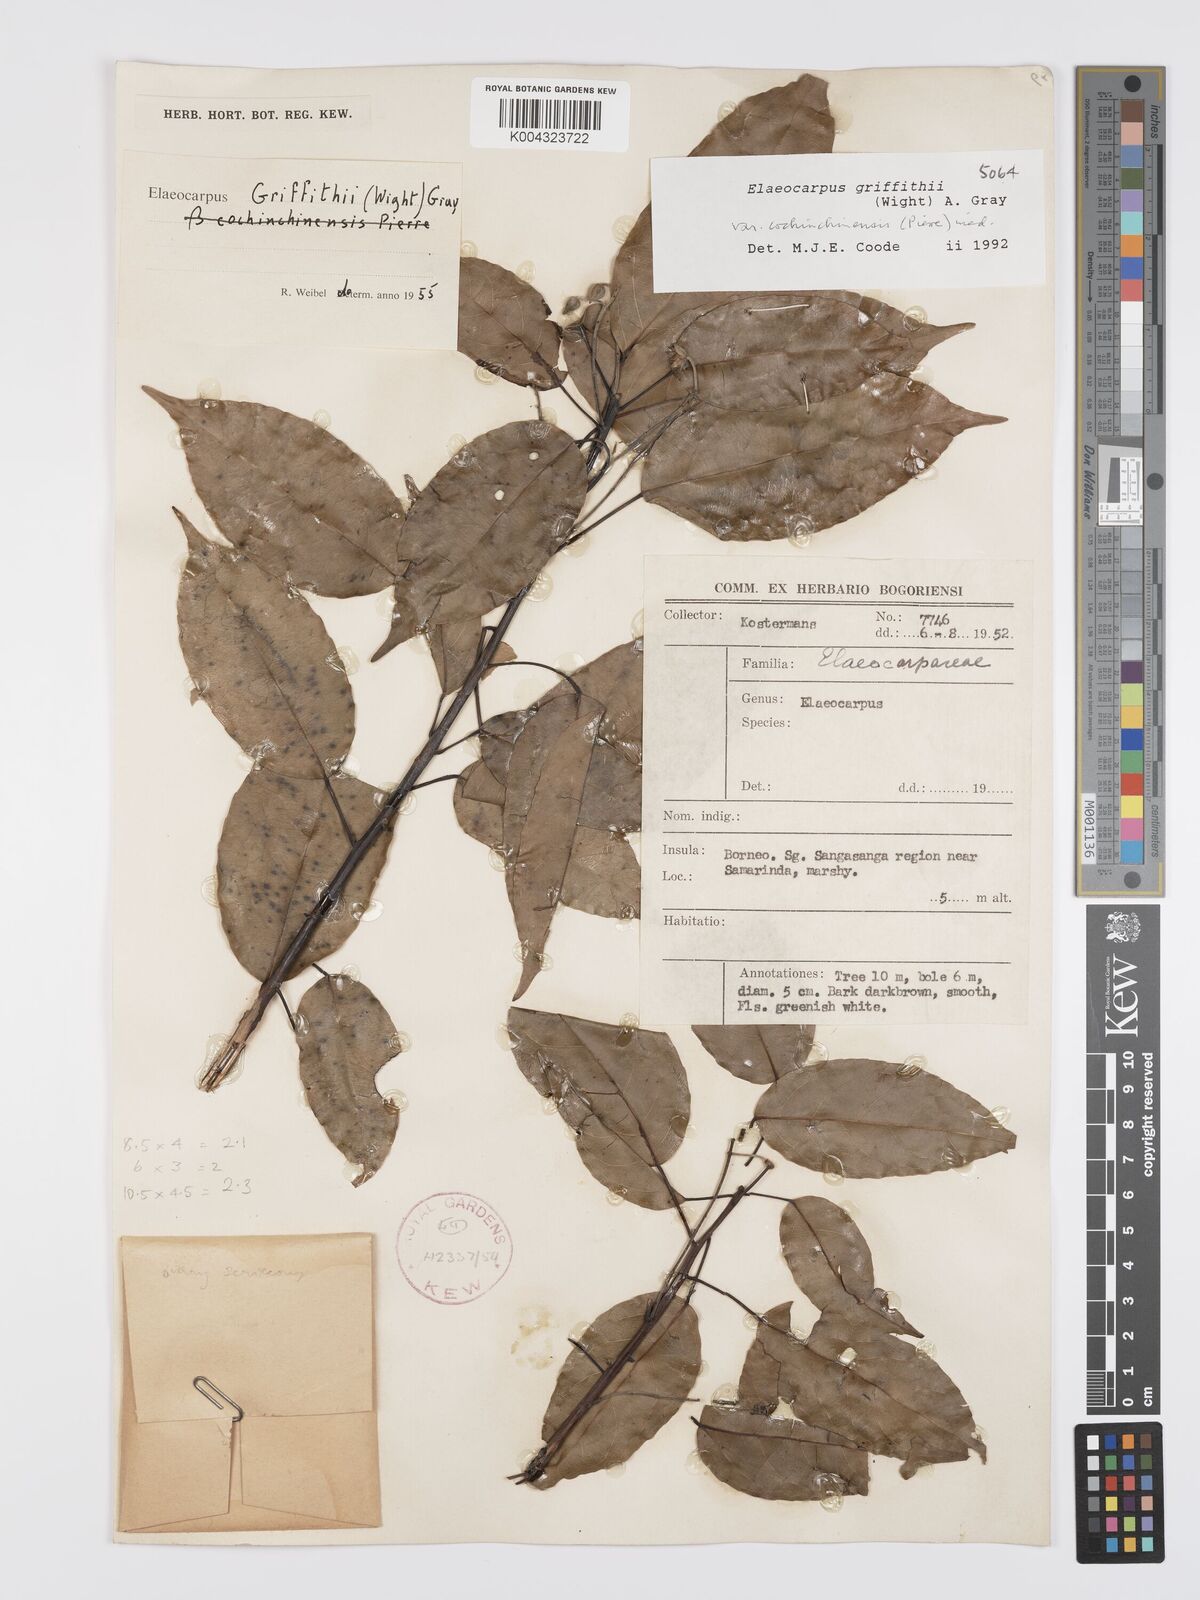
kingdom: Plantae
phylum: Tracheophyta
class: Magnoliopsida
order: Oxalidales
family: Elaeocarpaceae
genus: Elaeocarpus
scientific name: Elaeocarpus griffithii
